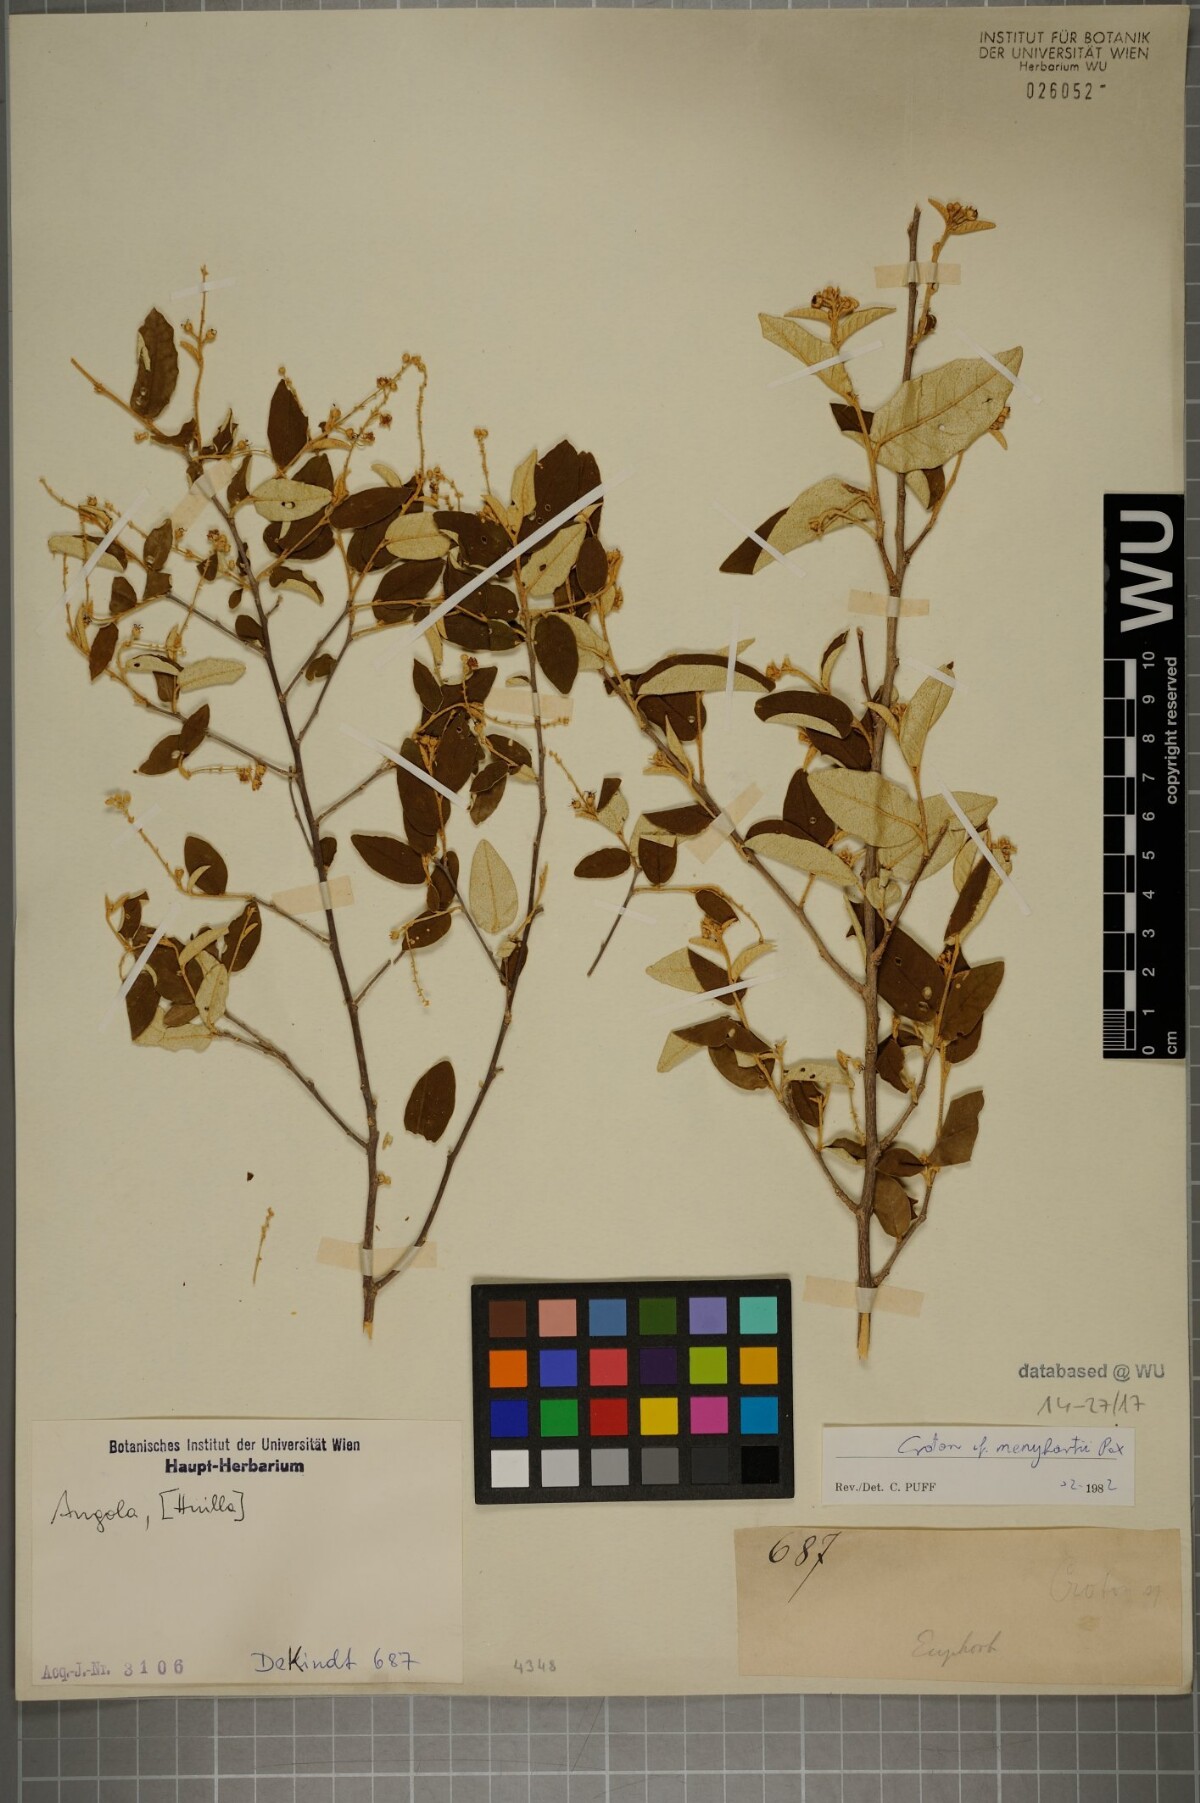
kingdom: Plantae
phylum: Tracheophyta
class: Magnoliopsida
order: Malpighiales
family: Euphorbiaceae
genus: Croton
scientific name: Croton menyharthii
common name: Rough-leaved croton
